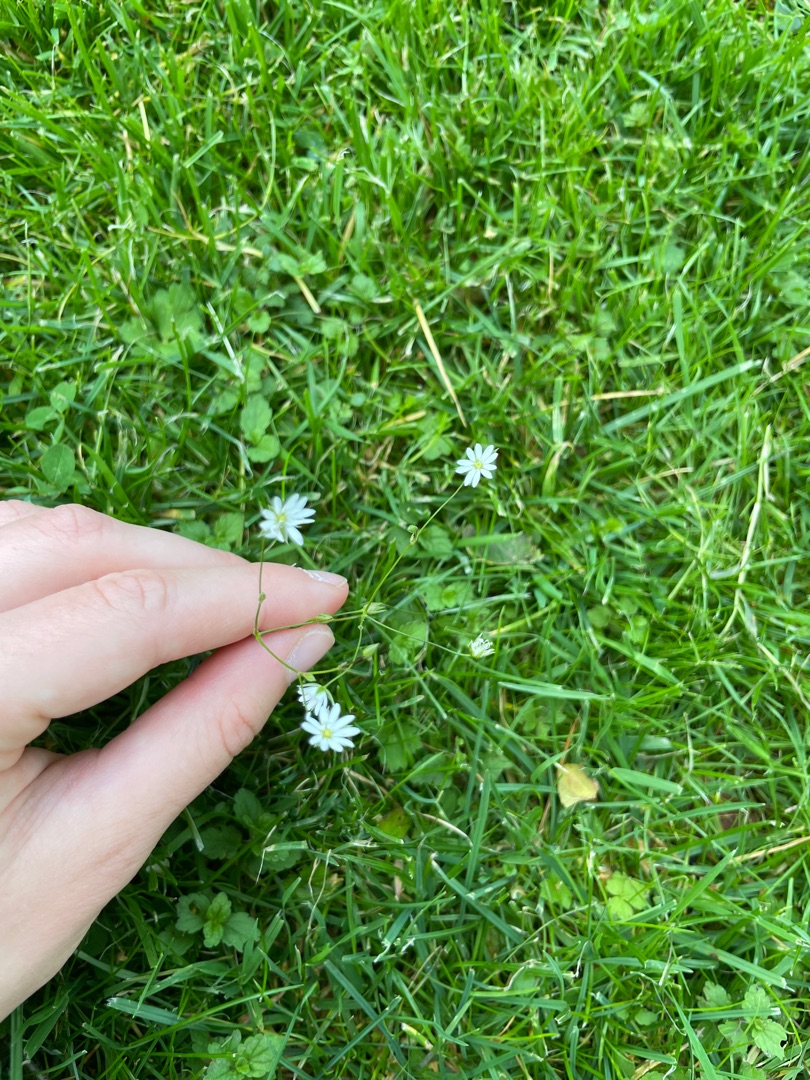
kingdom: Plantae
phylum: Tracheophyta
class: Magnoliopsida
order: Caryophyllales
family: Caryophyllaceae
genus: Stellaria
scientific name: Stellaria graminea
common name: Græsbladet fladstjerne
